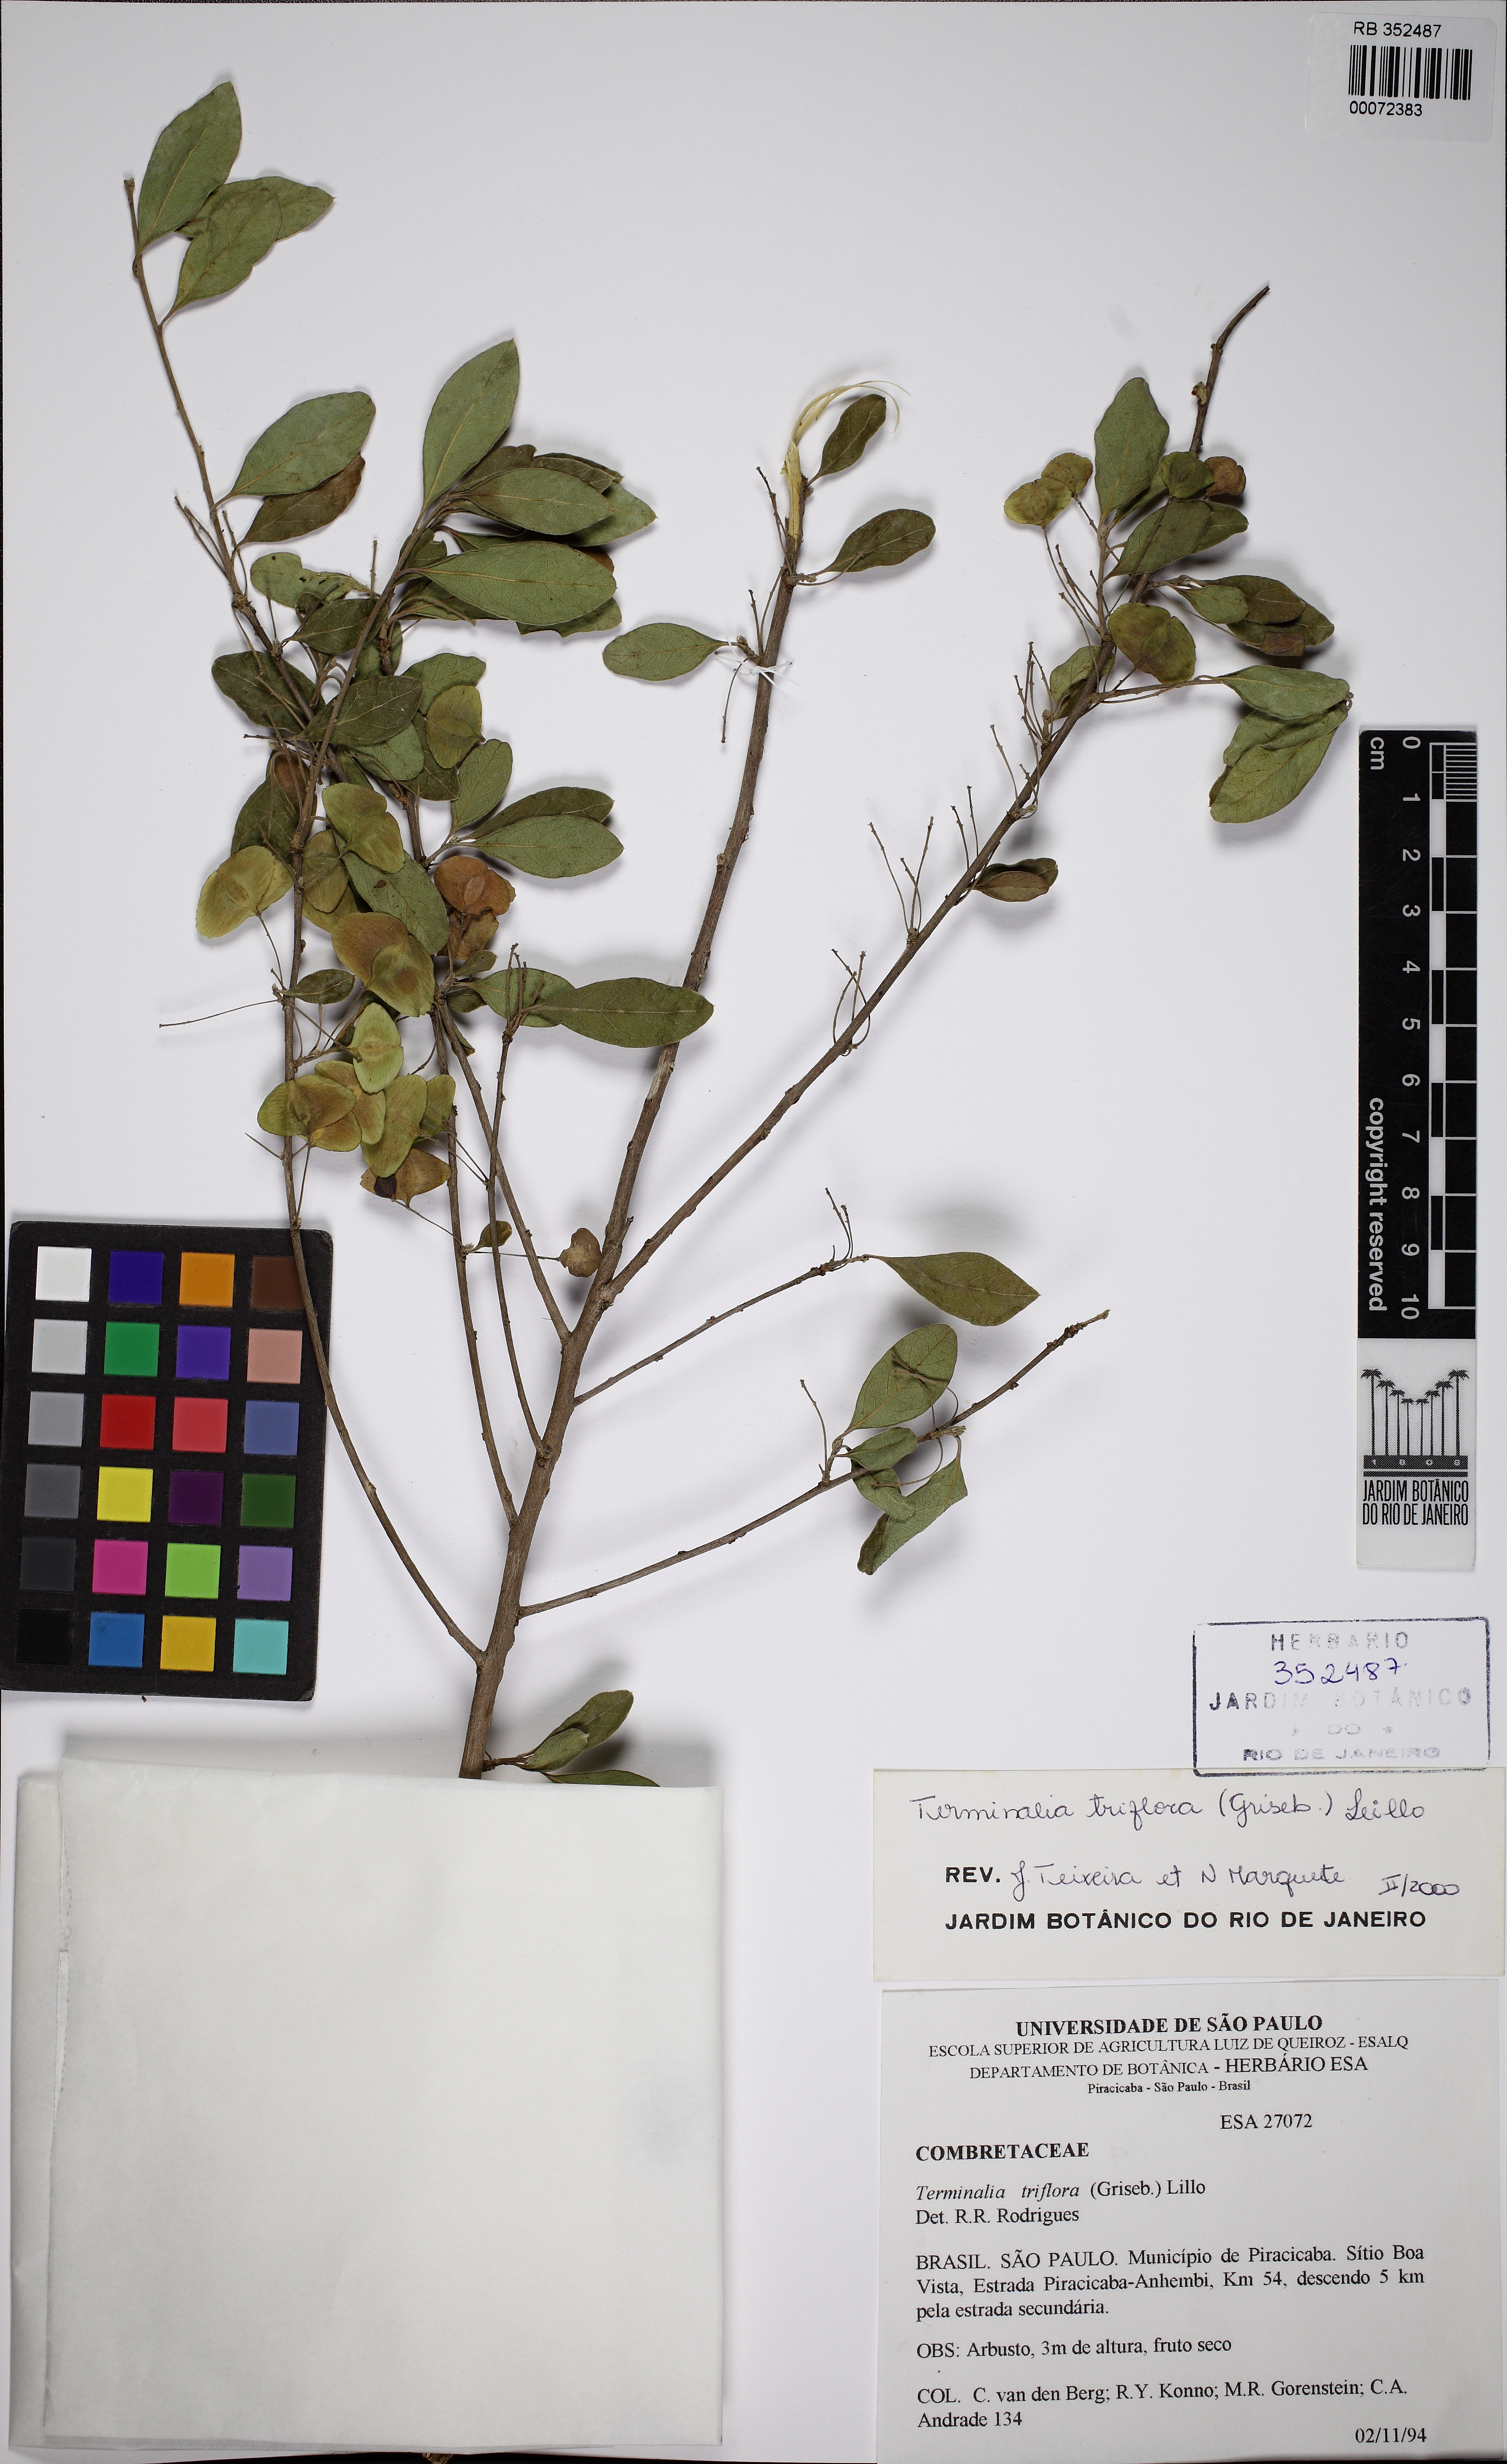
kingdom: Plantae
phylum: Tracheophyta
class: Magnoliopsida
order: Myrtales
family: Combretaceae
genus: Terminalia
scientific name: Terminalia triflora
